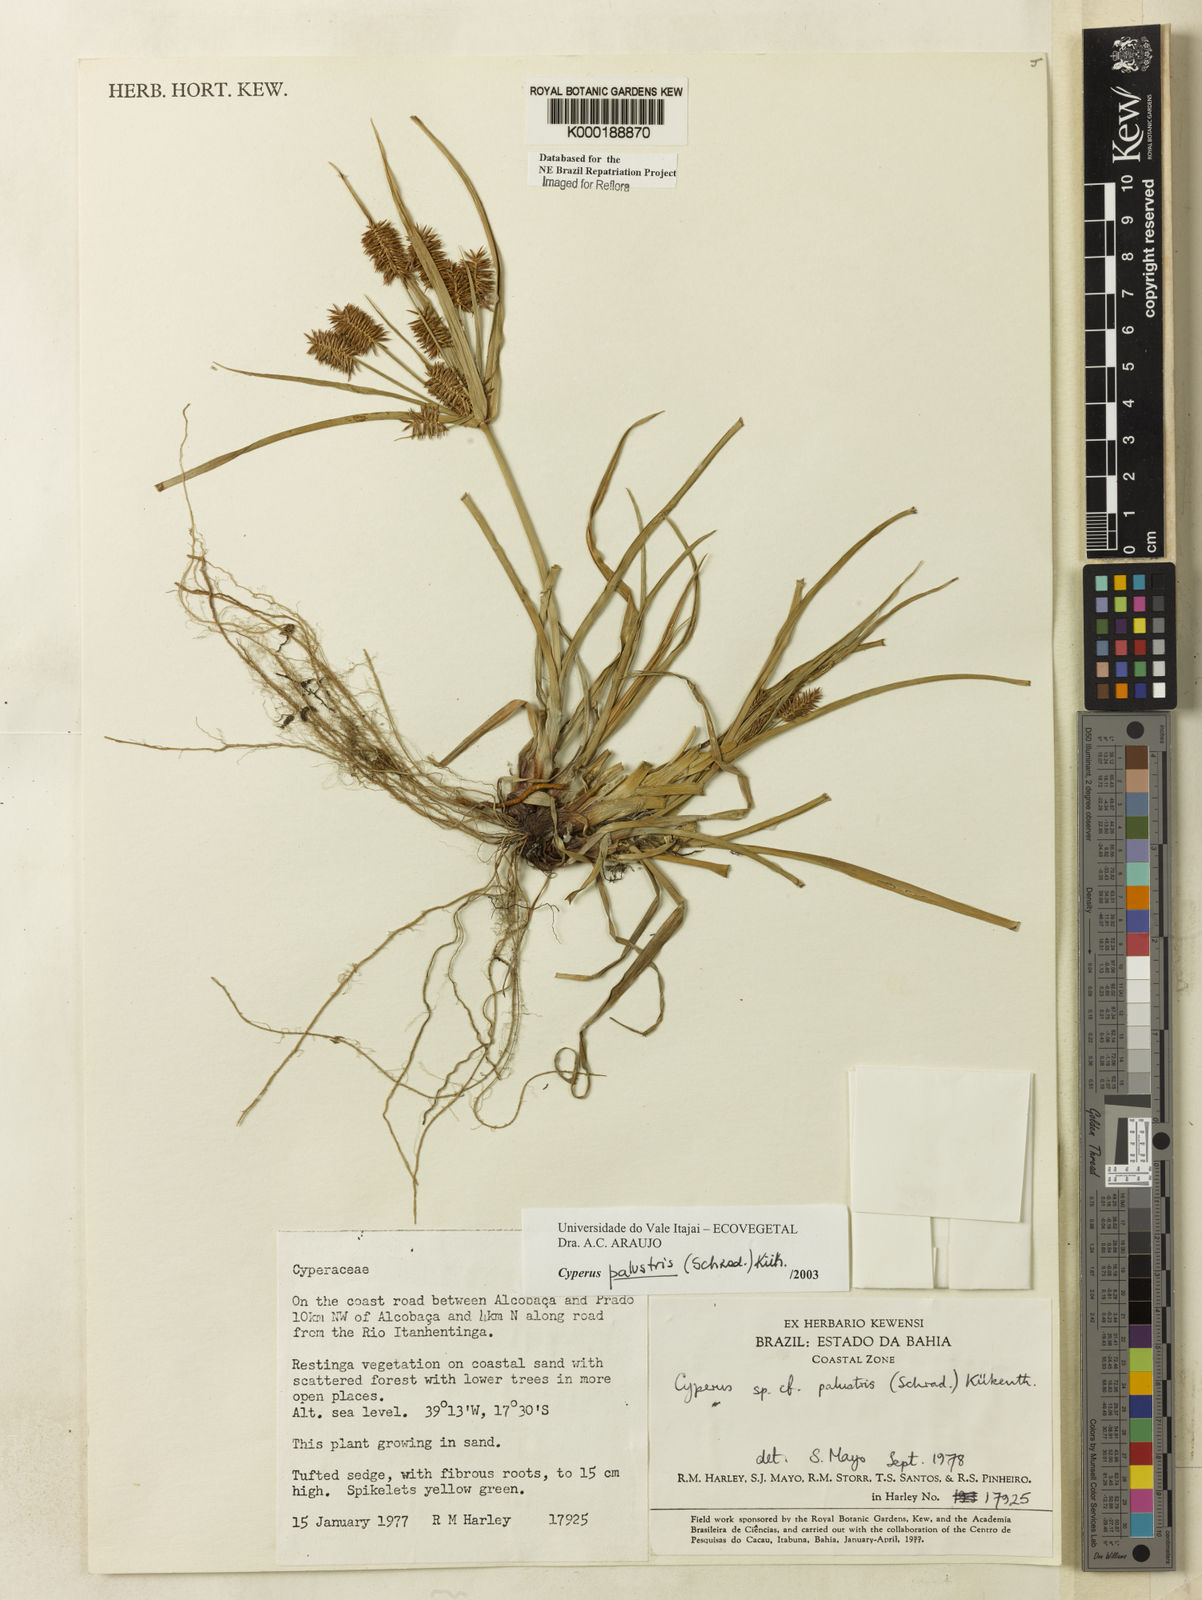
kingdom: Plantae
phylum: Tracheophyta
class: Liliopsida
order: Poales
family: Cyperaceae
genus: Cyperus
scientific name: Cyperus meyerianus
